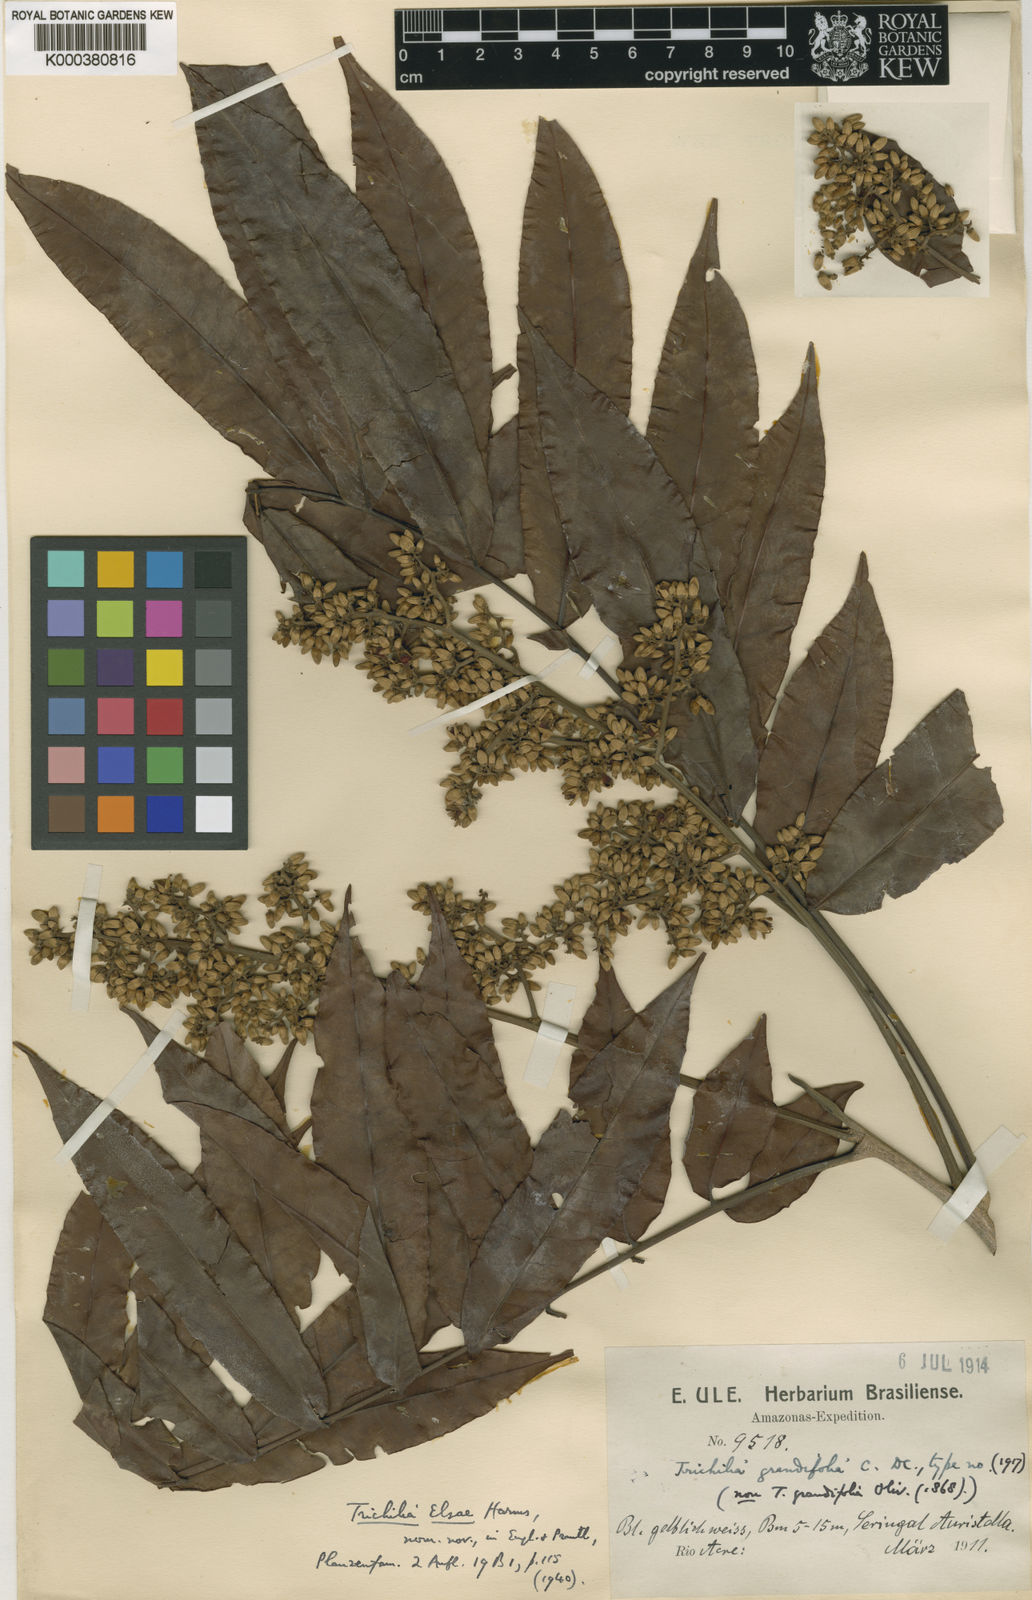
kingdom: Plantae
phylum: Tracheophyta
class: Magnoliopsida
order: Sapindales
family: Meliaceae
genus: Trichilia
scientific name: Trichilia elsae
